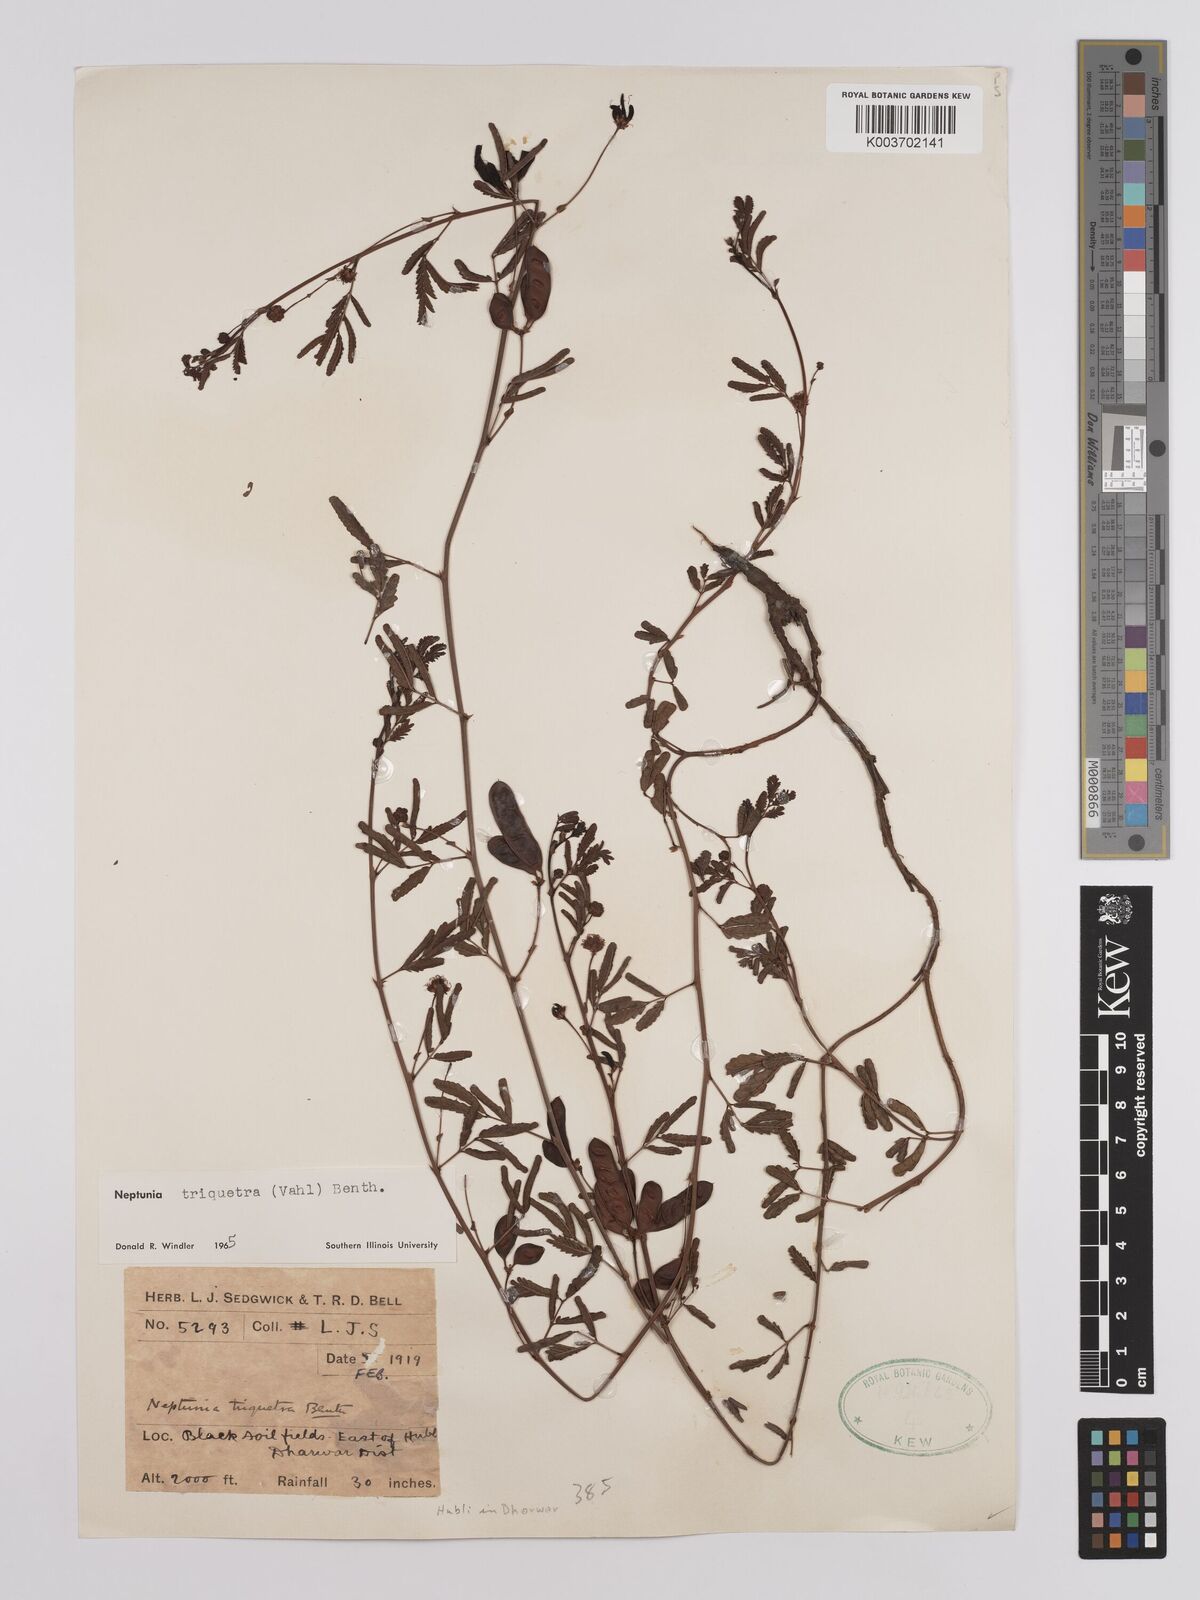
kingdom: Plantae
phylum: Tracheophyta
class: Magnoliopsida
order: Fabales
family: Fabaceae
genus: Neptunia
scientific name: Neptunia triquetra
